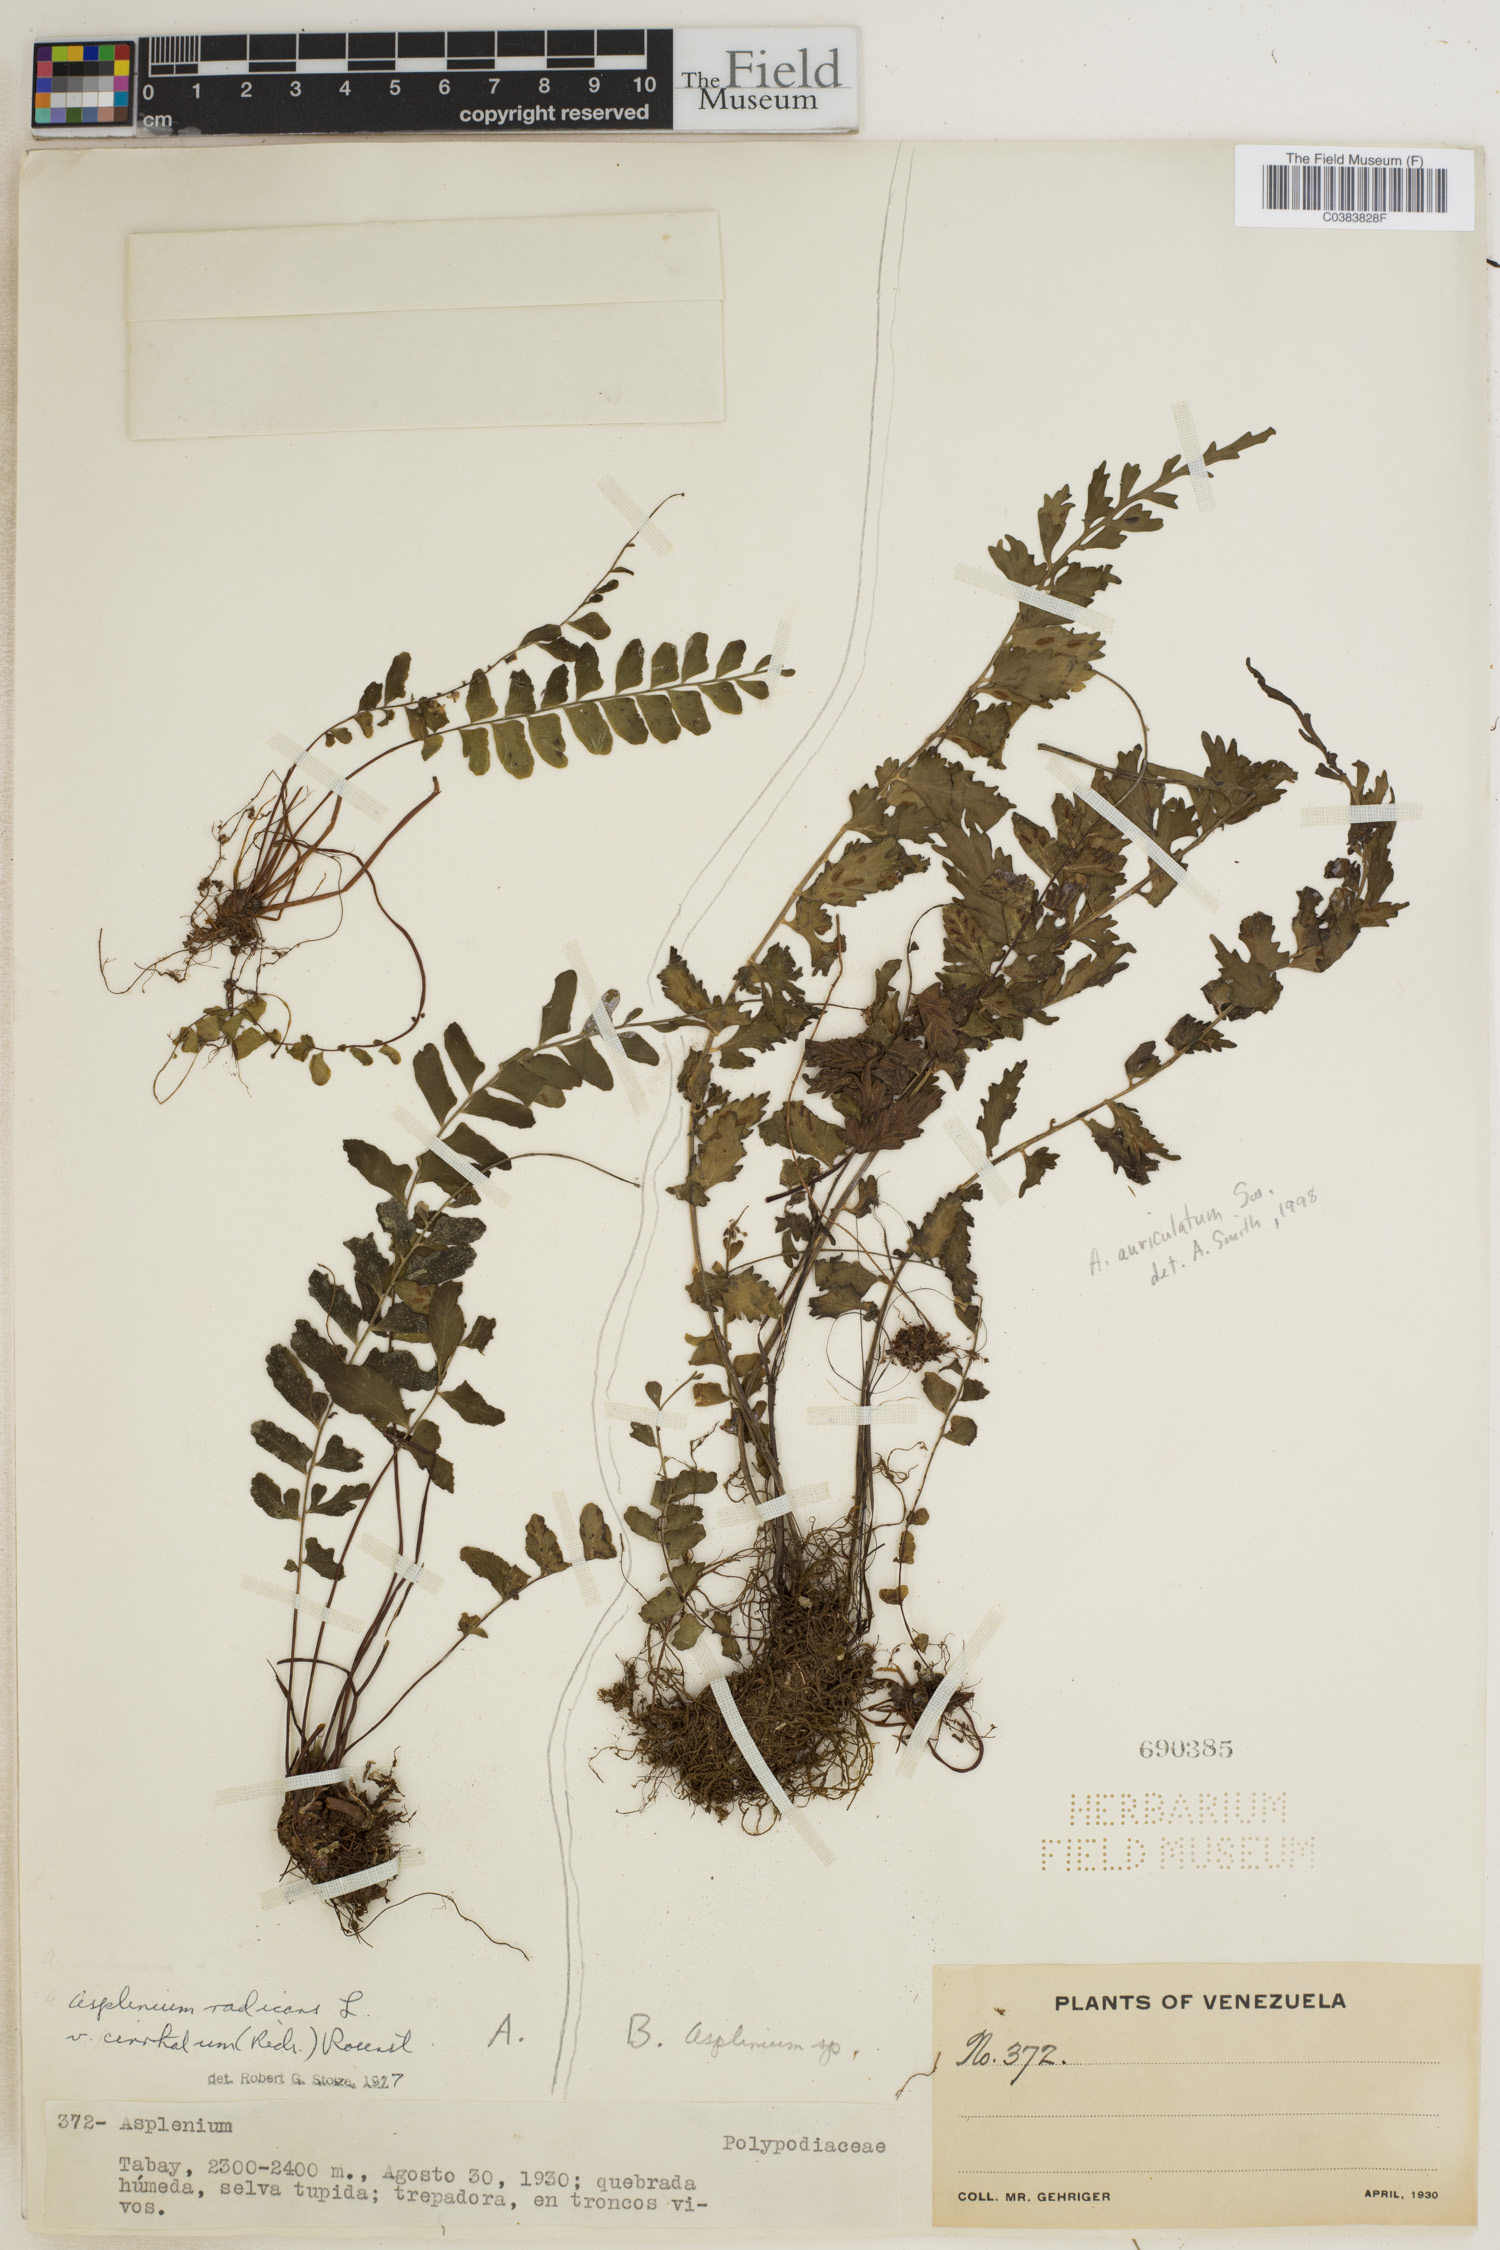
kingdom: Plantae
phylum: Tracheophyta
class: Polypodiopsida
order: Polypodiales
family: Aspleniaceae
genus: Asplenium
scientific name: Asplenium radicans
